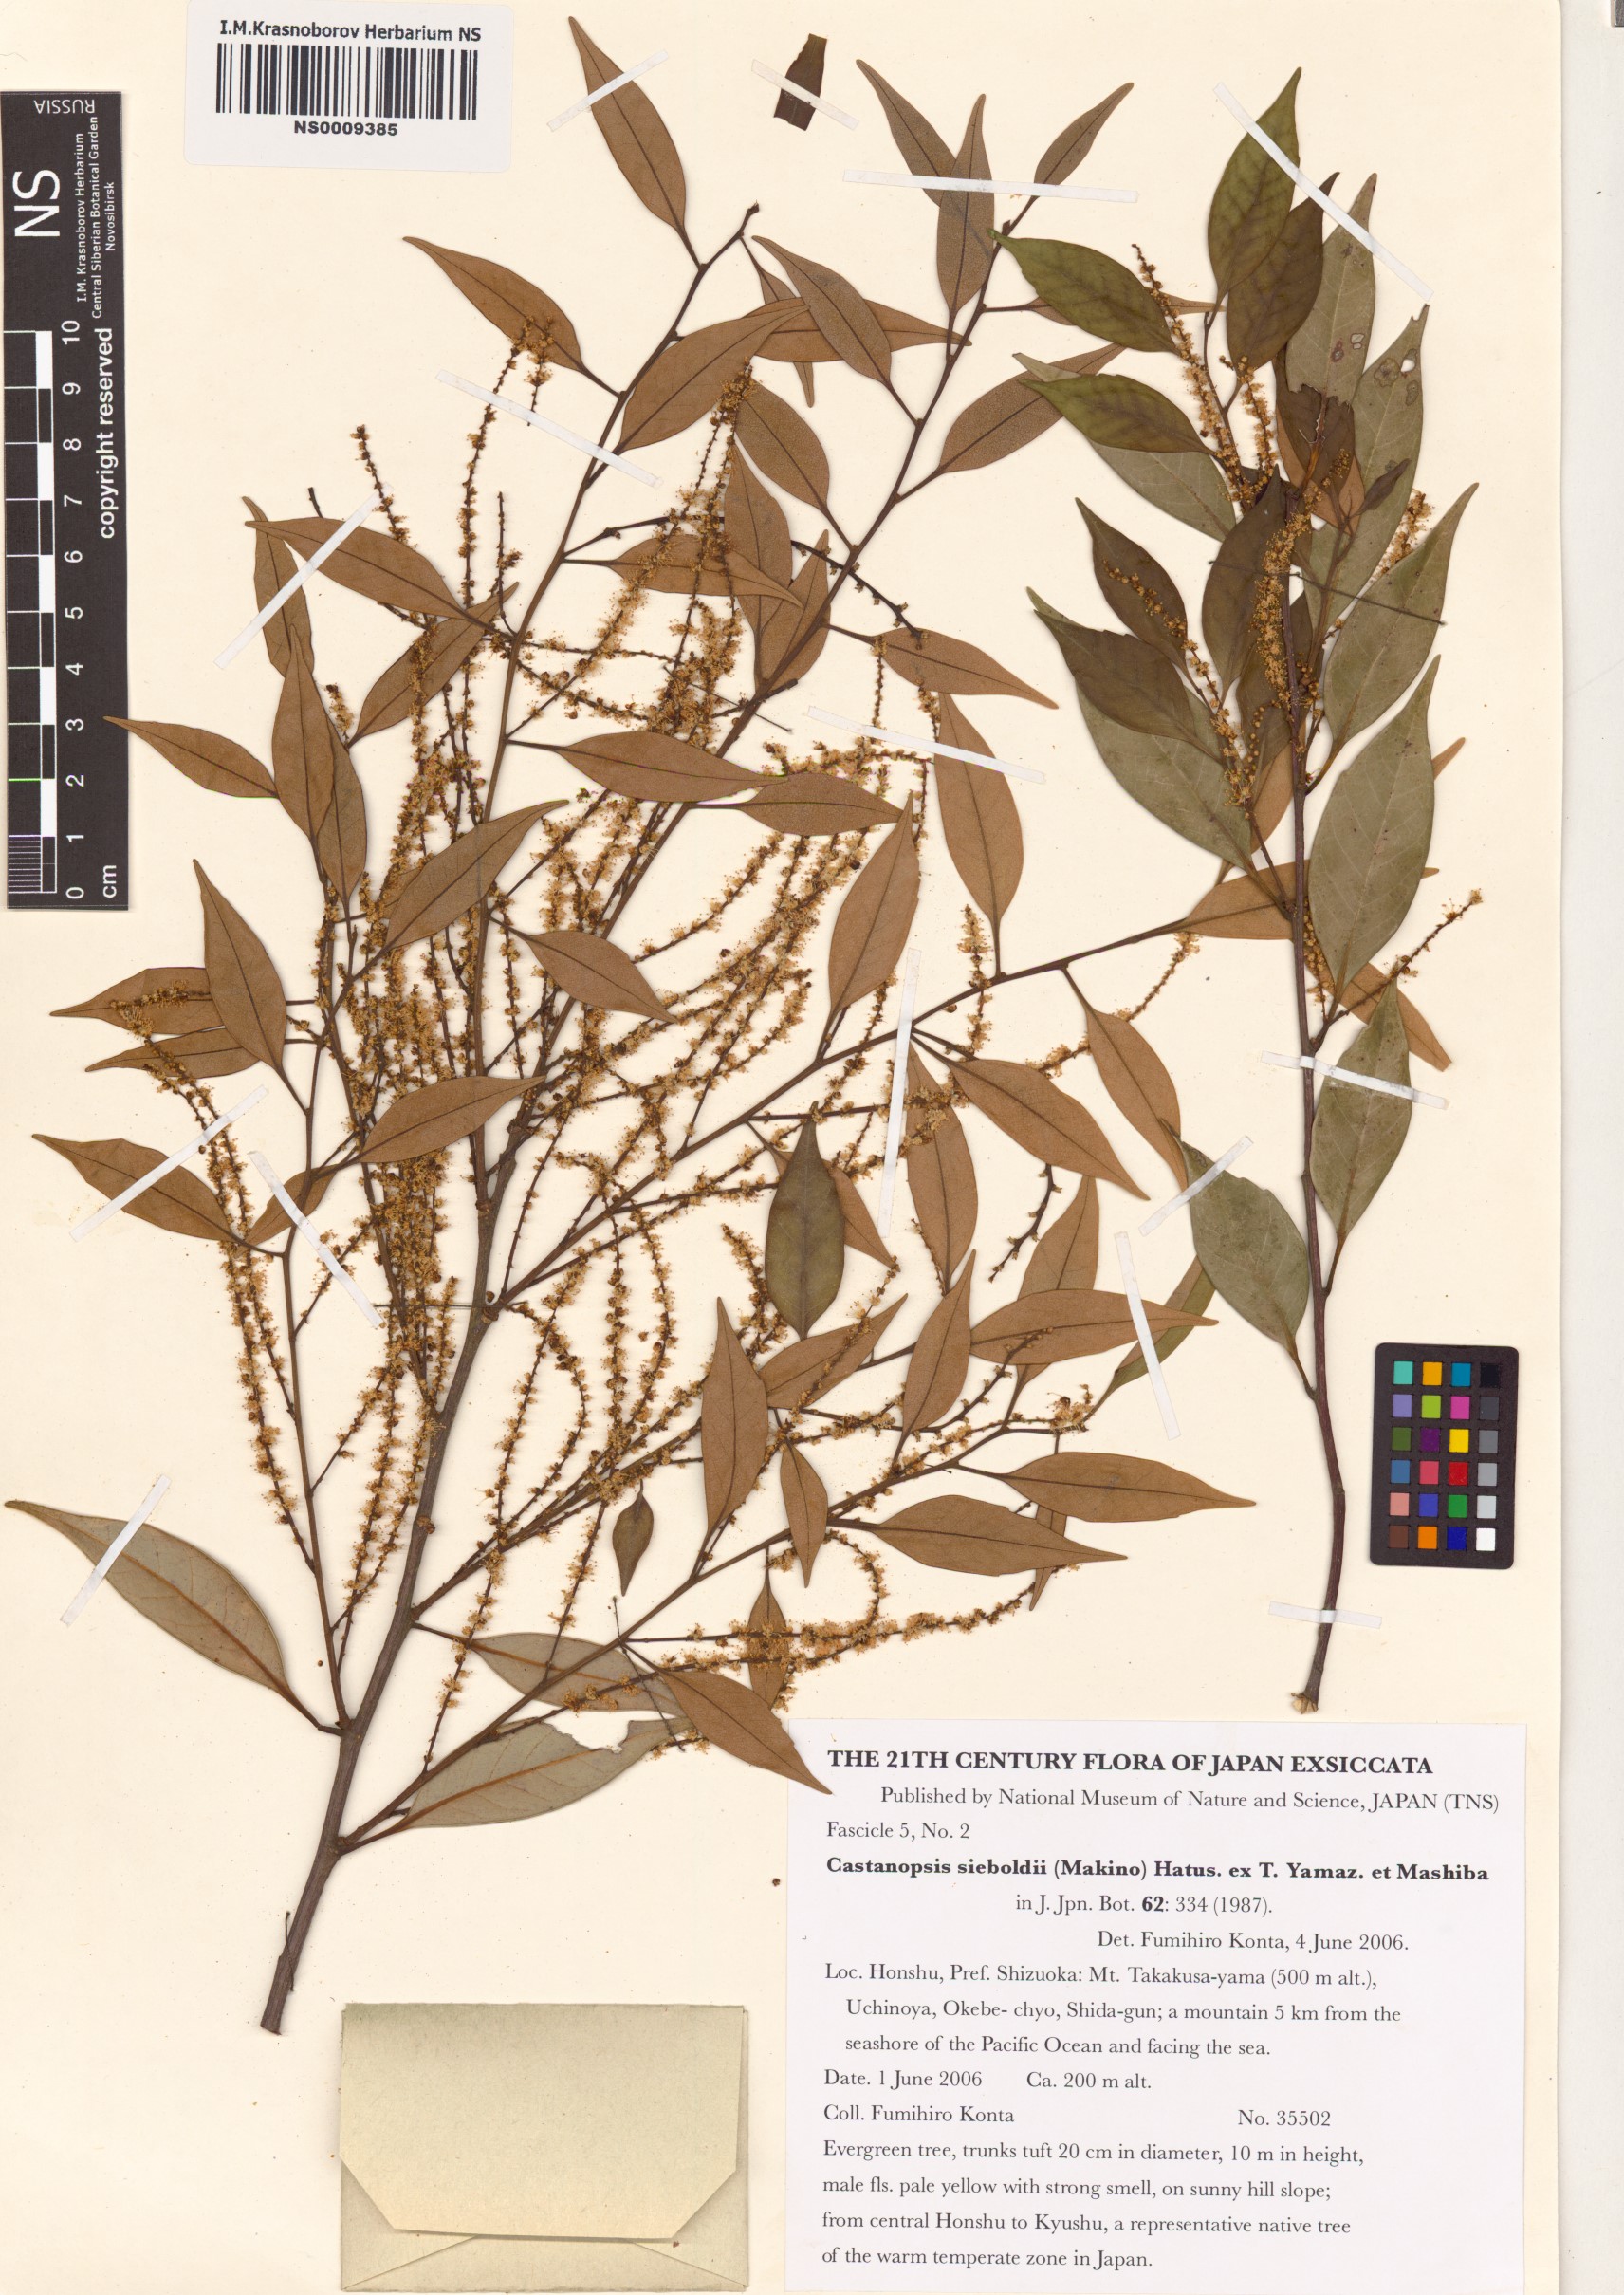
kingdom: Plantae
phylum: Tracheophyta
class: Magnoliopsida
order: Fagales
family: Fagaceae
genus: Castanopsis
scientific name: Castanopsis sieboldii
